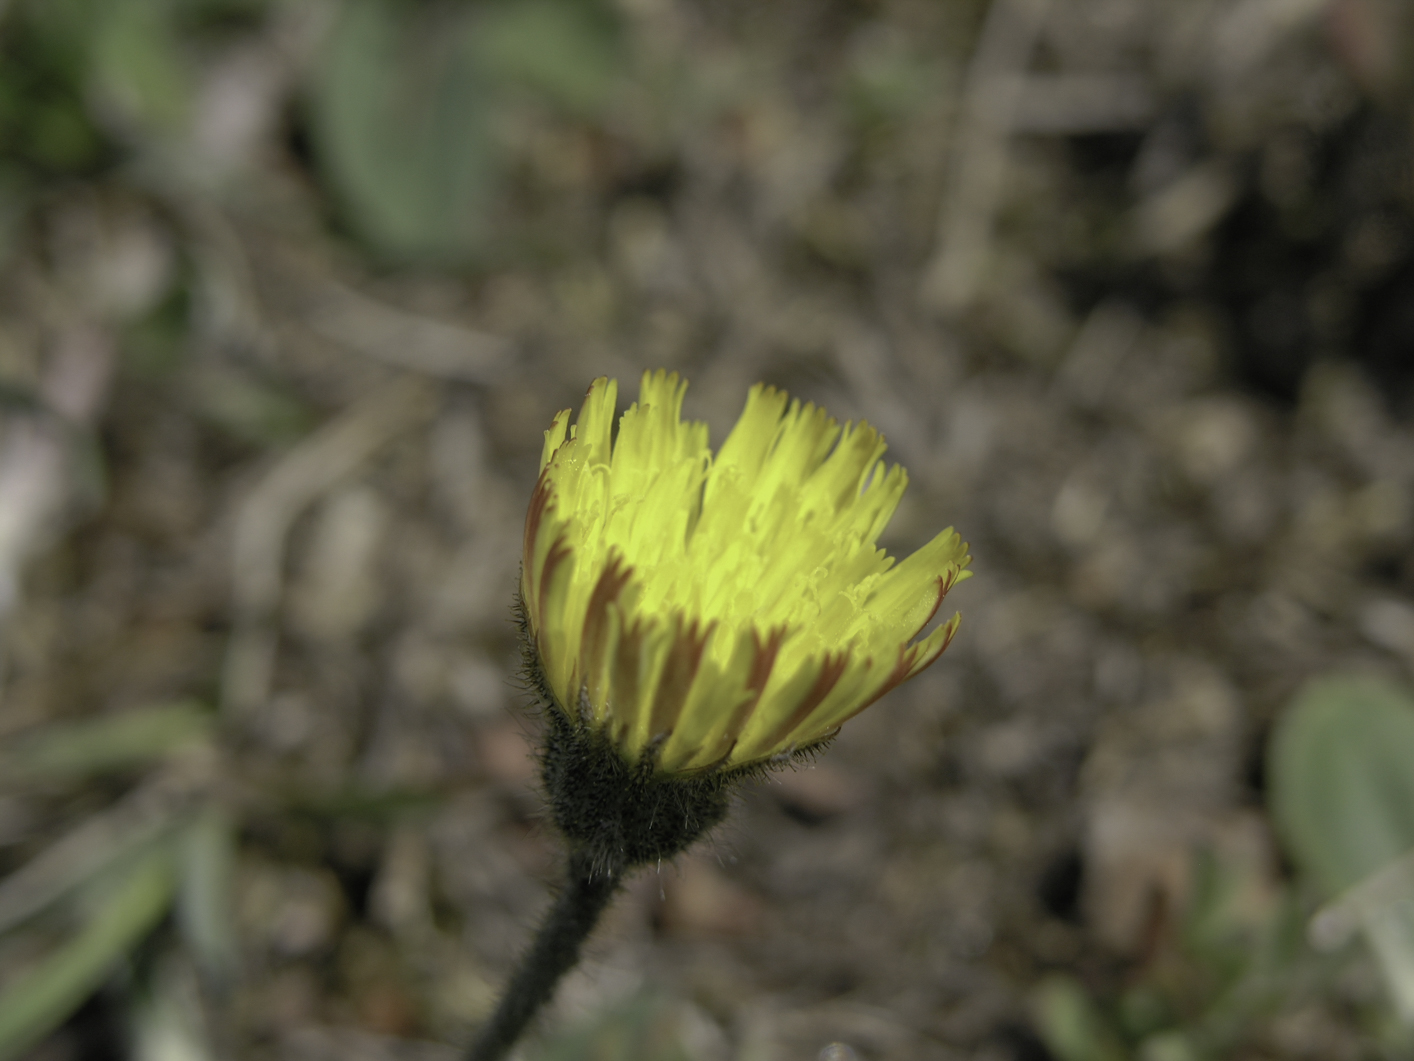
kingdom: Plantae
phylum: Tracheophyta
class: Magnoliopsida
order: Asterales
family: Asteraceae
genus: Pilosella
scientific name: Pilosella officinarum
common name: Mouse-ear hawkweed
